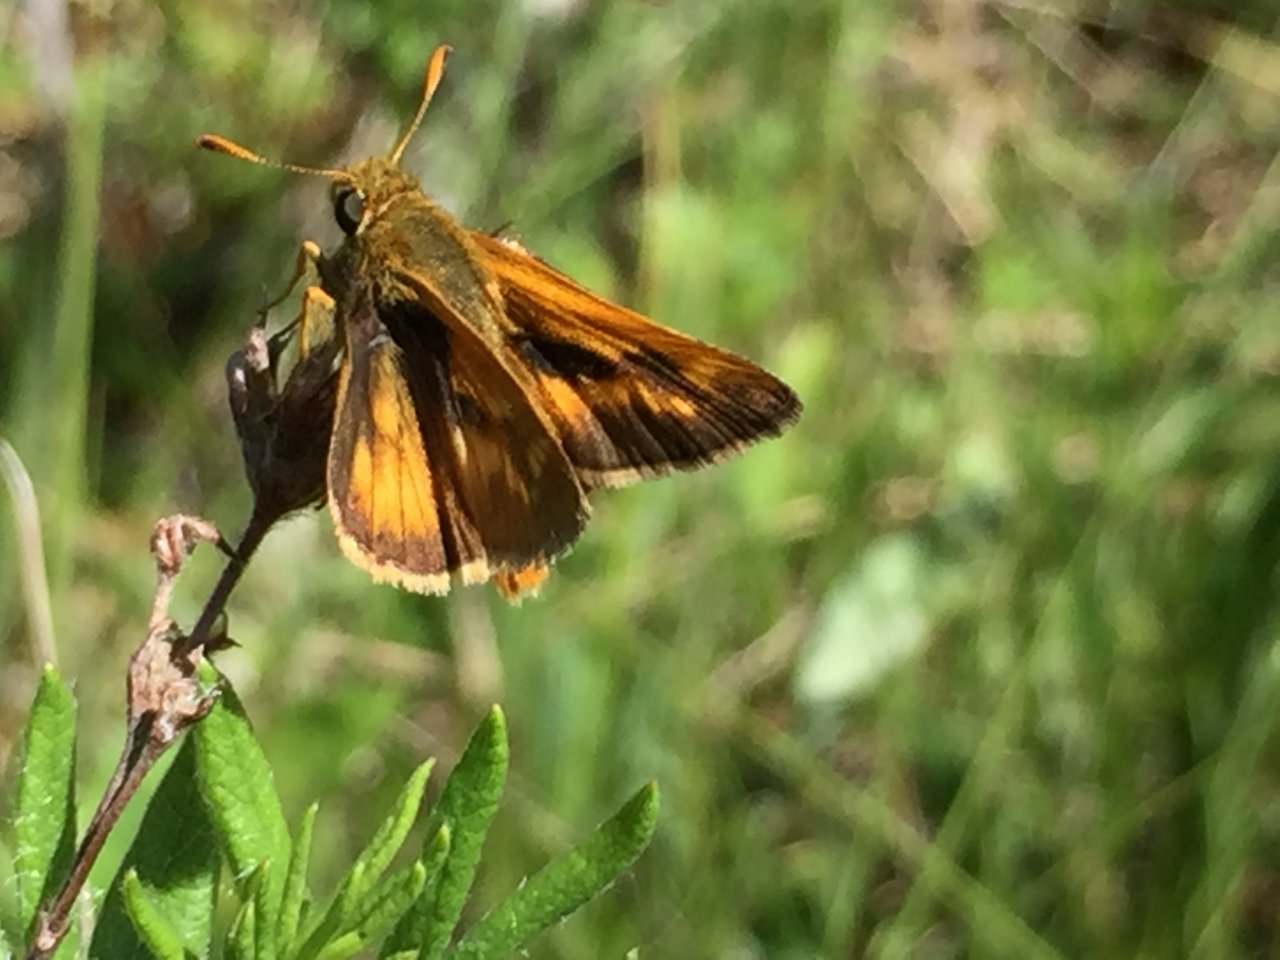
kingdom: Animalia
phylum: Arthropoda
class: Insecta
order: Lepidoptera
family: Hesperiidae
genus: Polites
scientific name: Polites
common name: Long Dash Skipper
